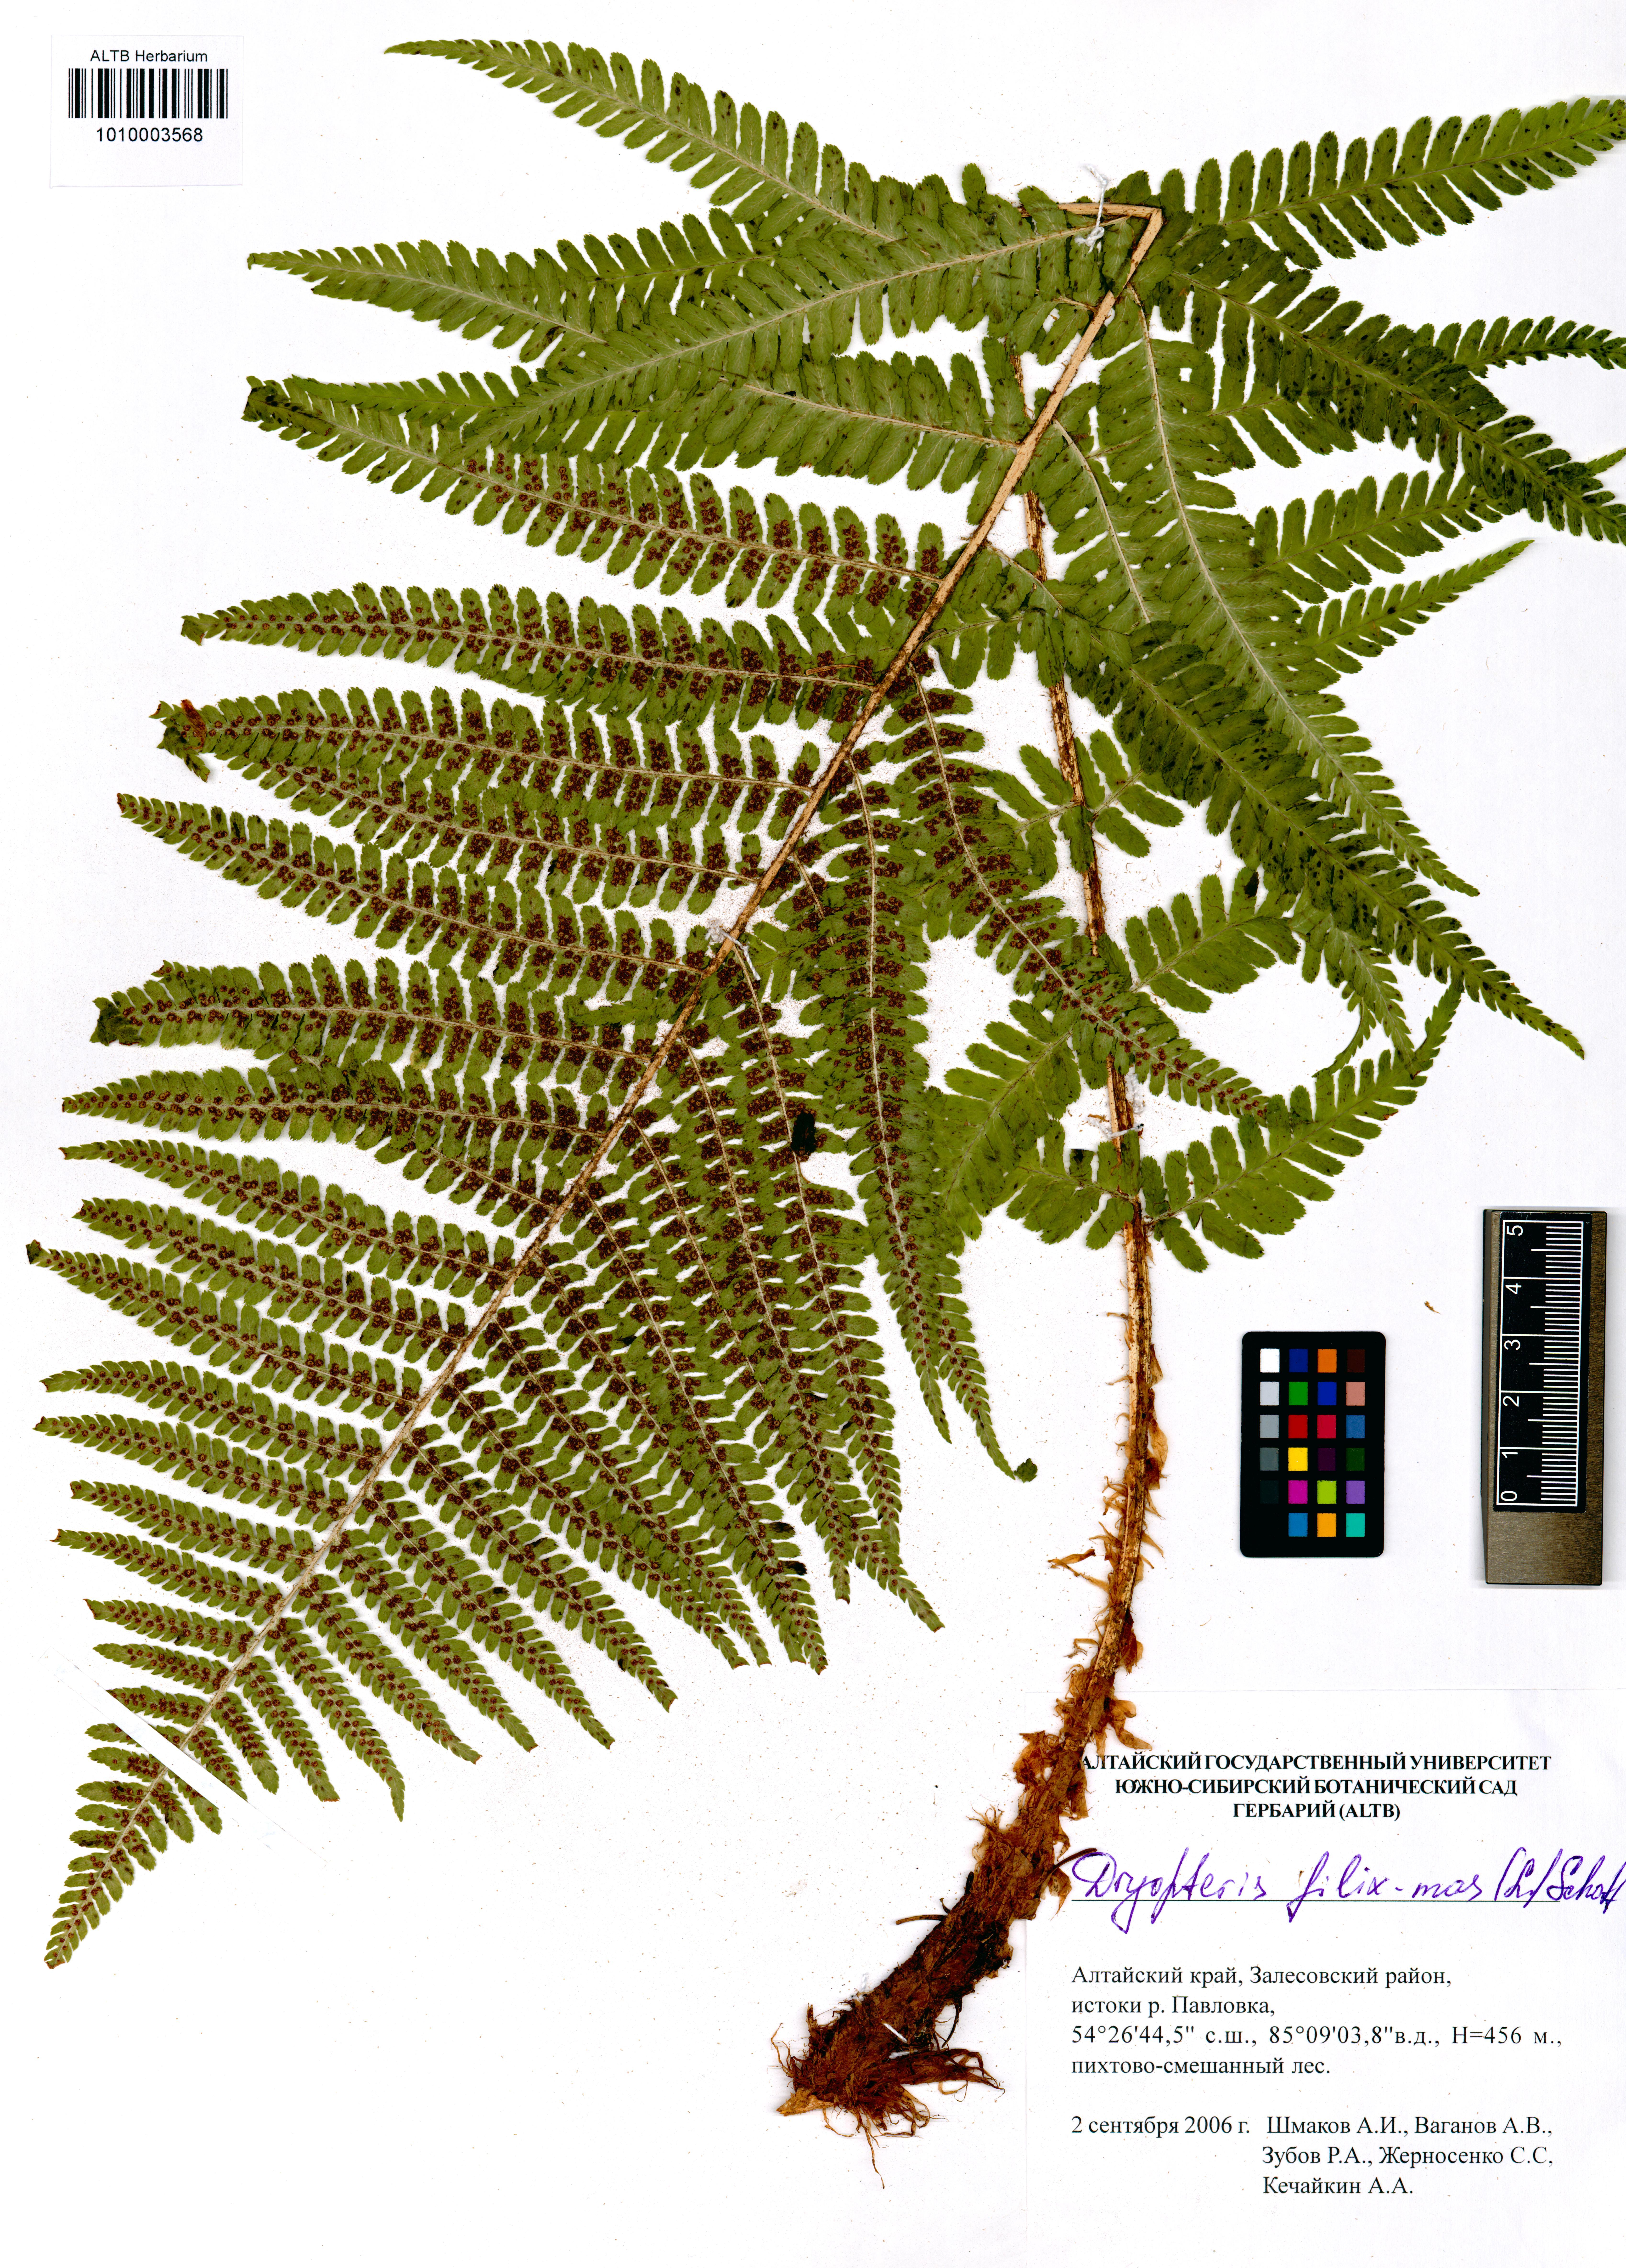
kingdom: Plantae
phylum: Tracheophyta
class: Polypodiopsida
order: Polypodiales
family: Dryopteridaceae
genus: Dryopteris
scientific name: Dryopteris filix-mas
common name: Male fern
